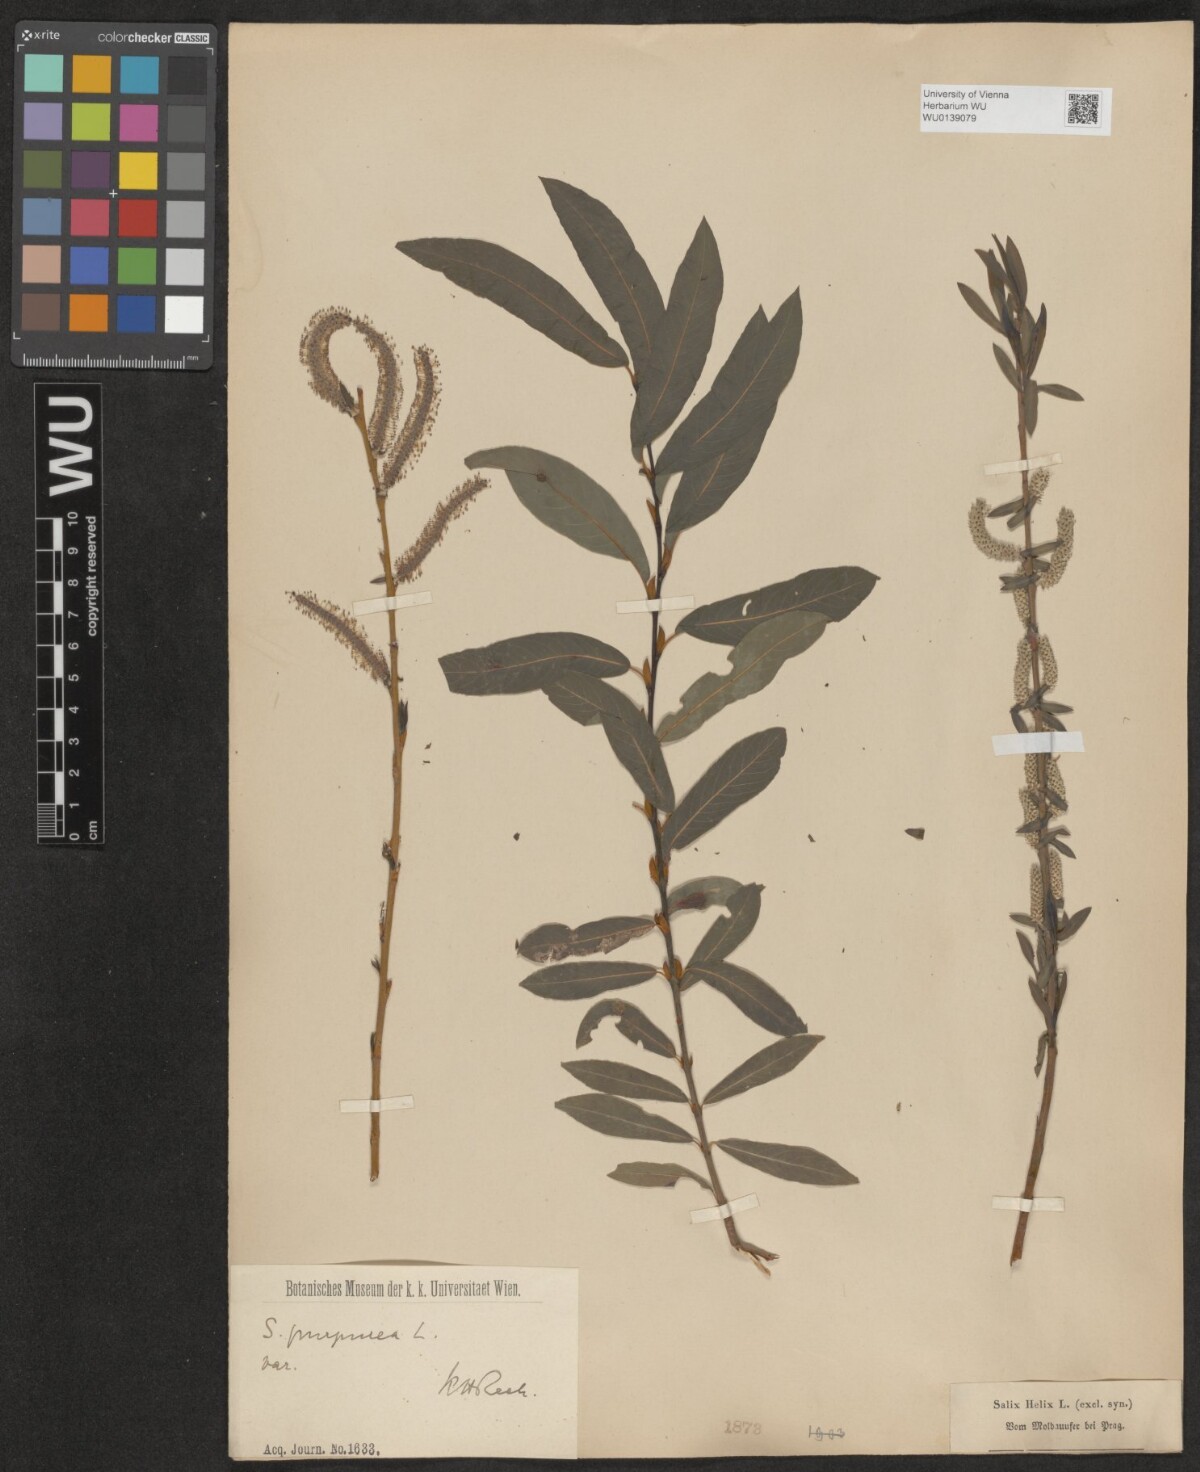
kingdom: Plantae
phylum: Tracheophyta
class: Magnoliopsida
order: Malpighiales
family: Salicaceae
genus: Salix
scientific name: Salix purpurea
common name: Purple willow
